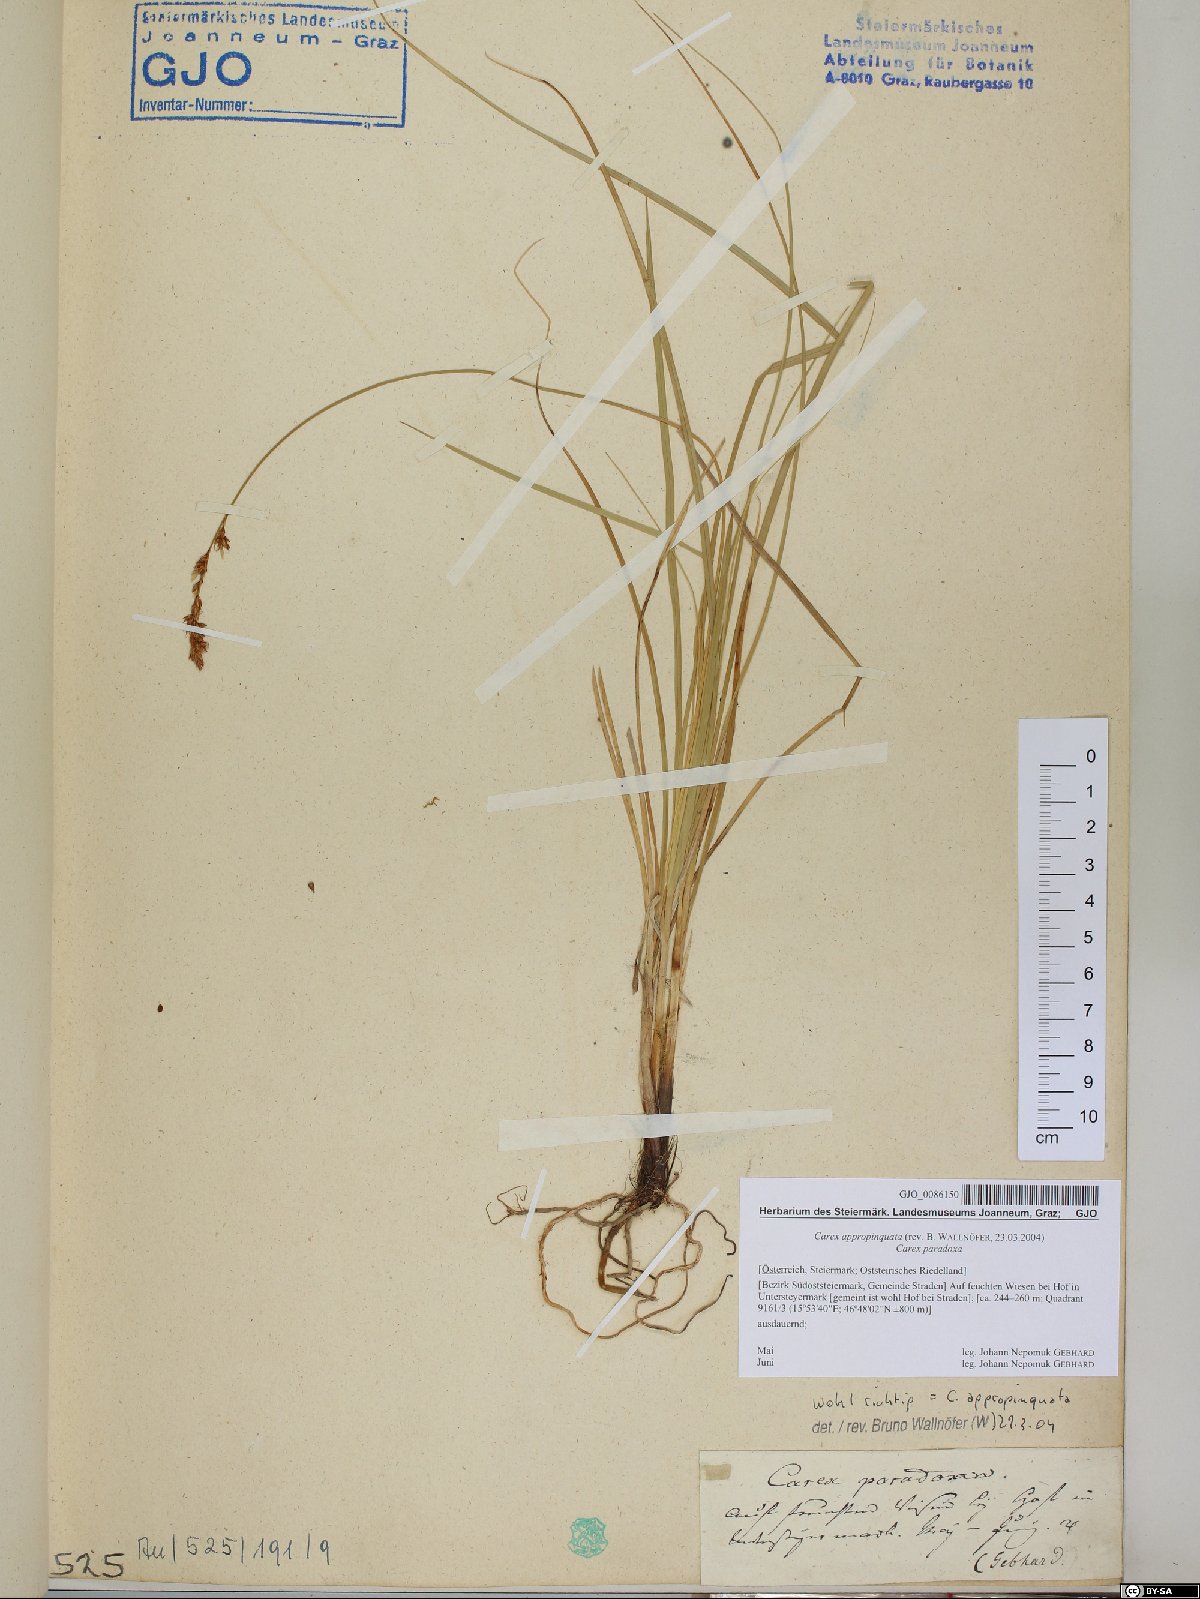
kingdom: Plantae
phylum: Tracheophyta
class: Liliopsida
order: Poales
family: Cyperaceae
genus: Carex
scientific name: Carex appropinquata
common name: Fibrous tussock-sedge
